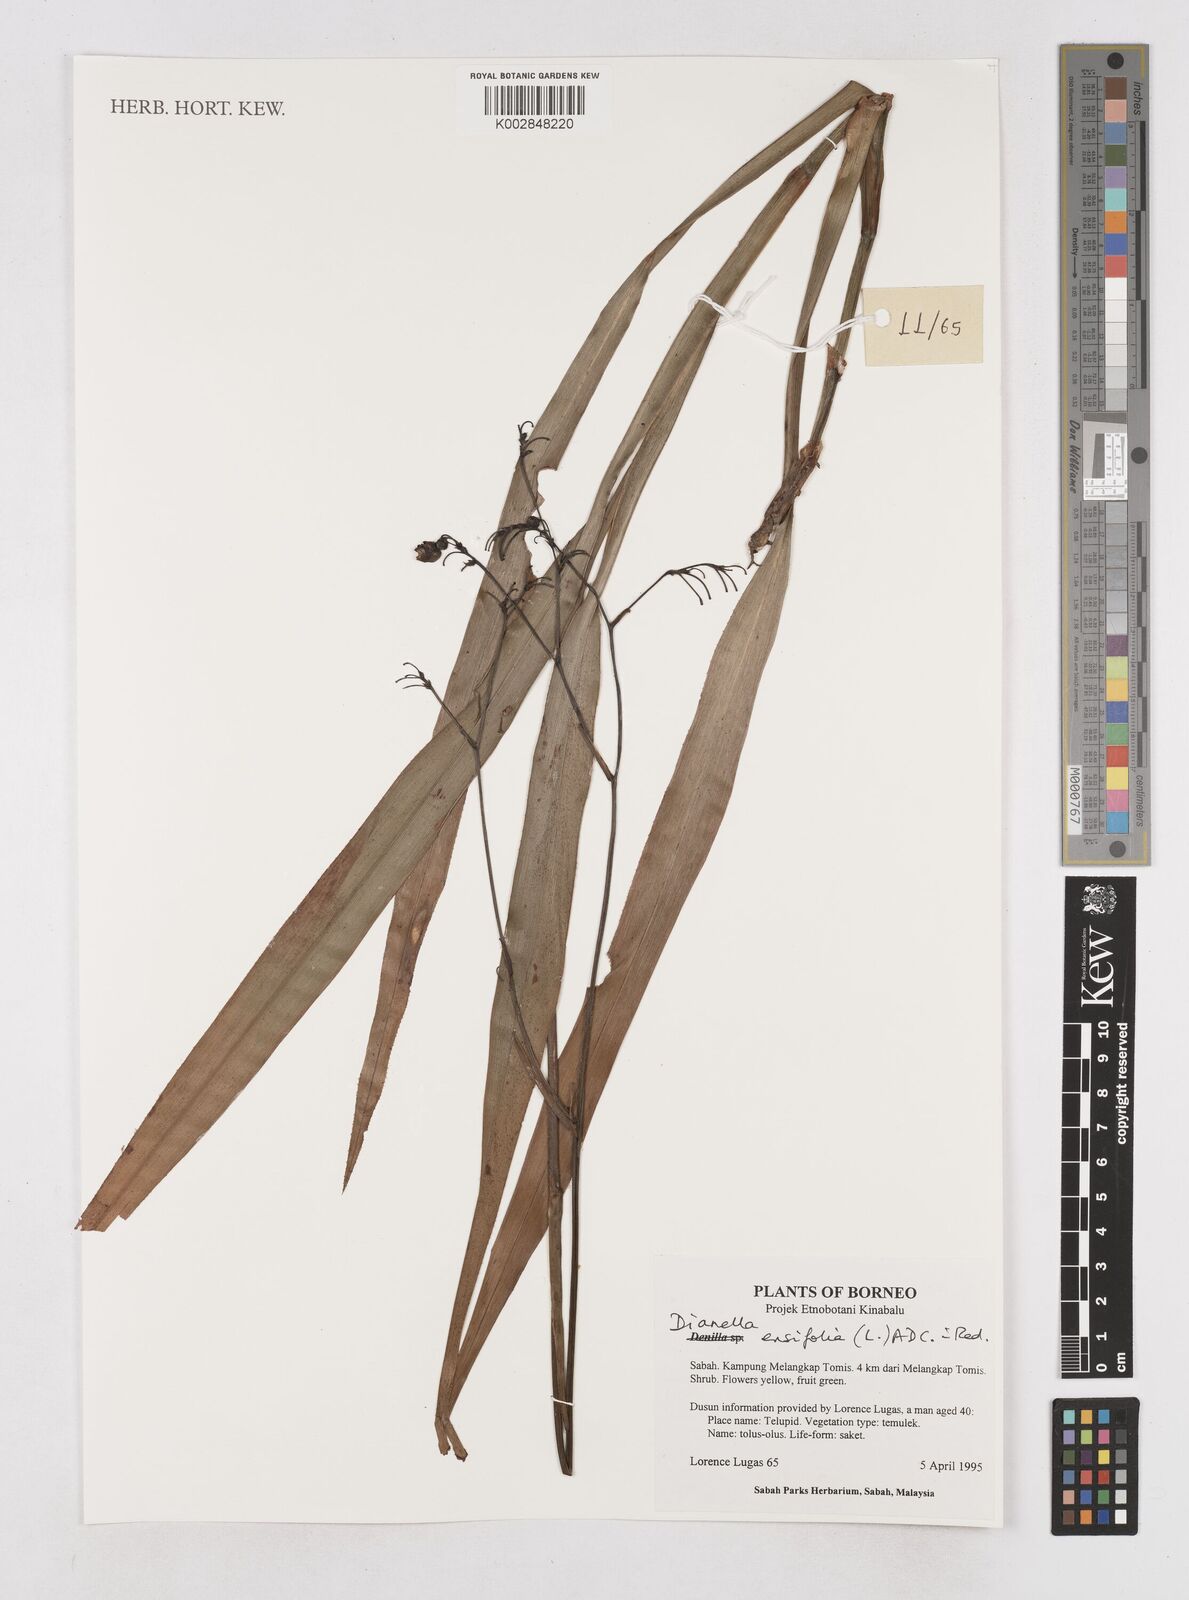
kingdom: Plantae
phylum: Tracheophyta
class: Liliopsida
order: Asparagales
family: Asphodelaceae
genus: Dianella
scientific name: Dianella ensifolia
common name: New zealand lilyplant
